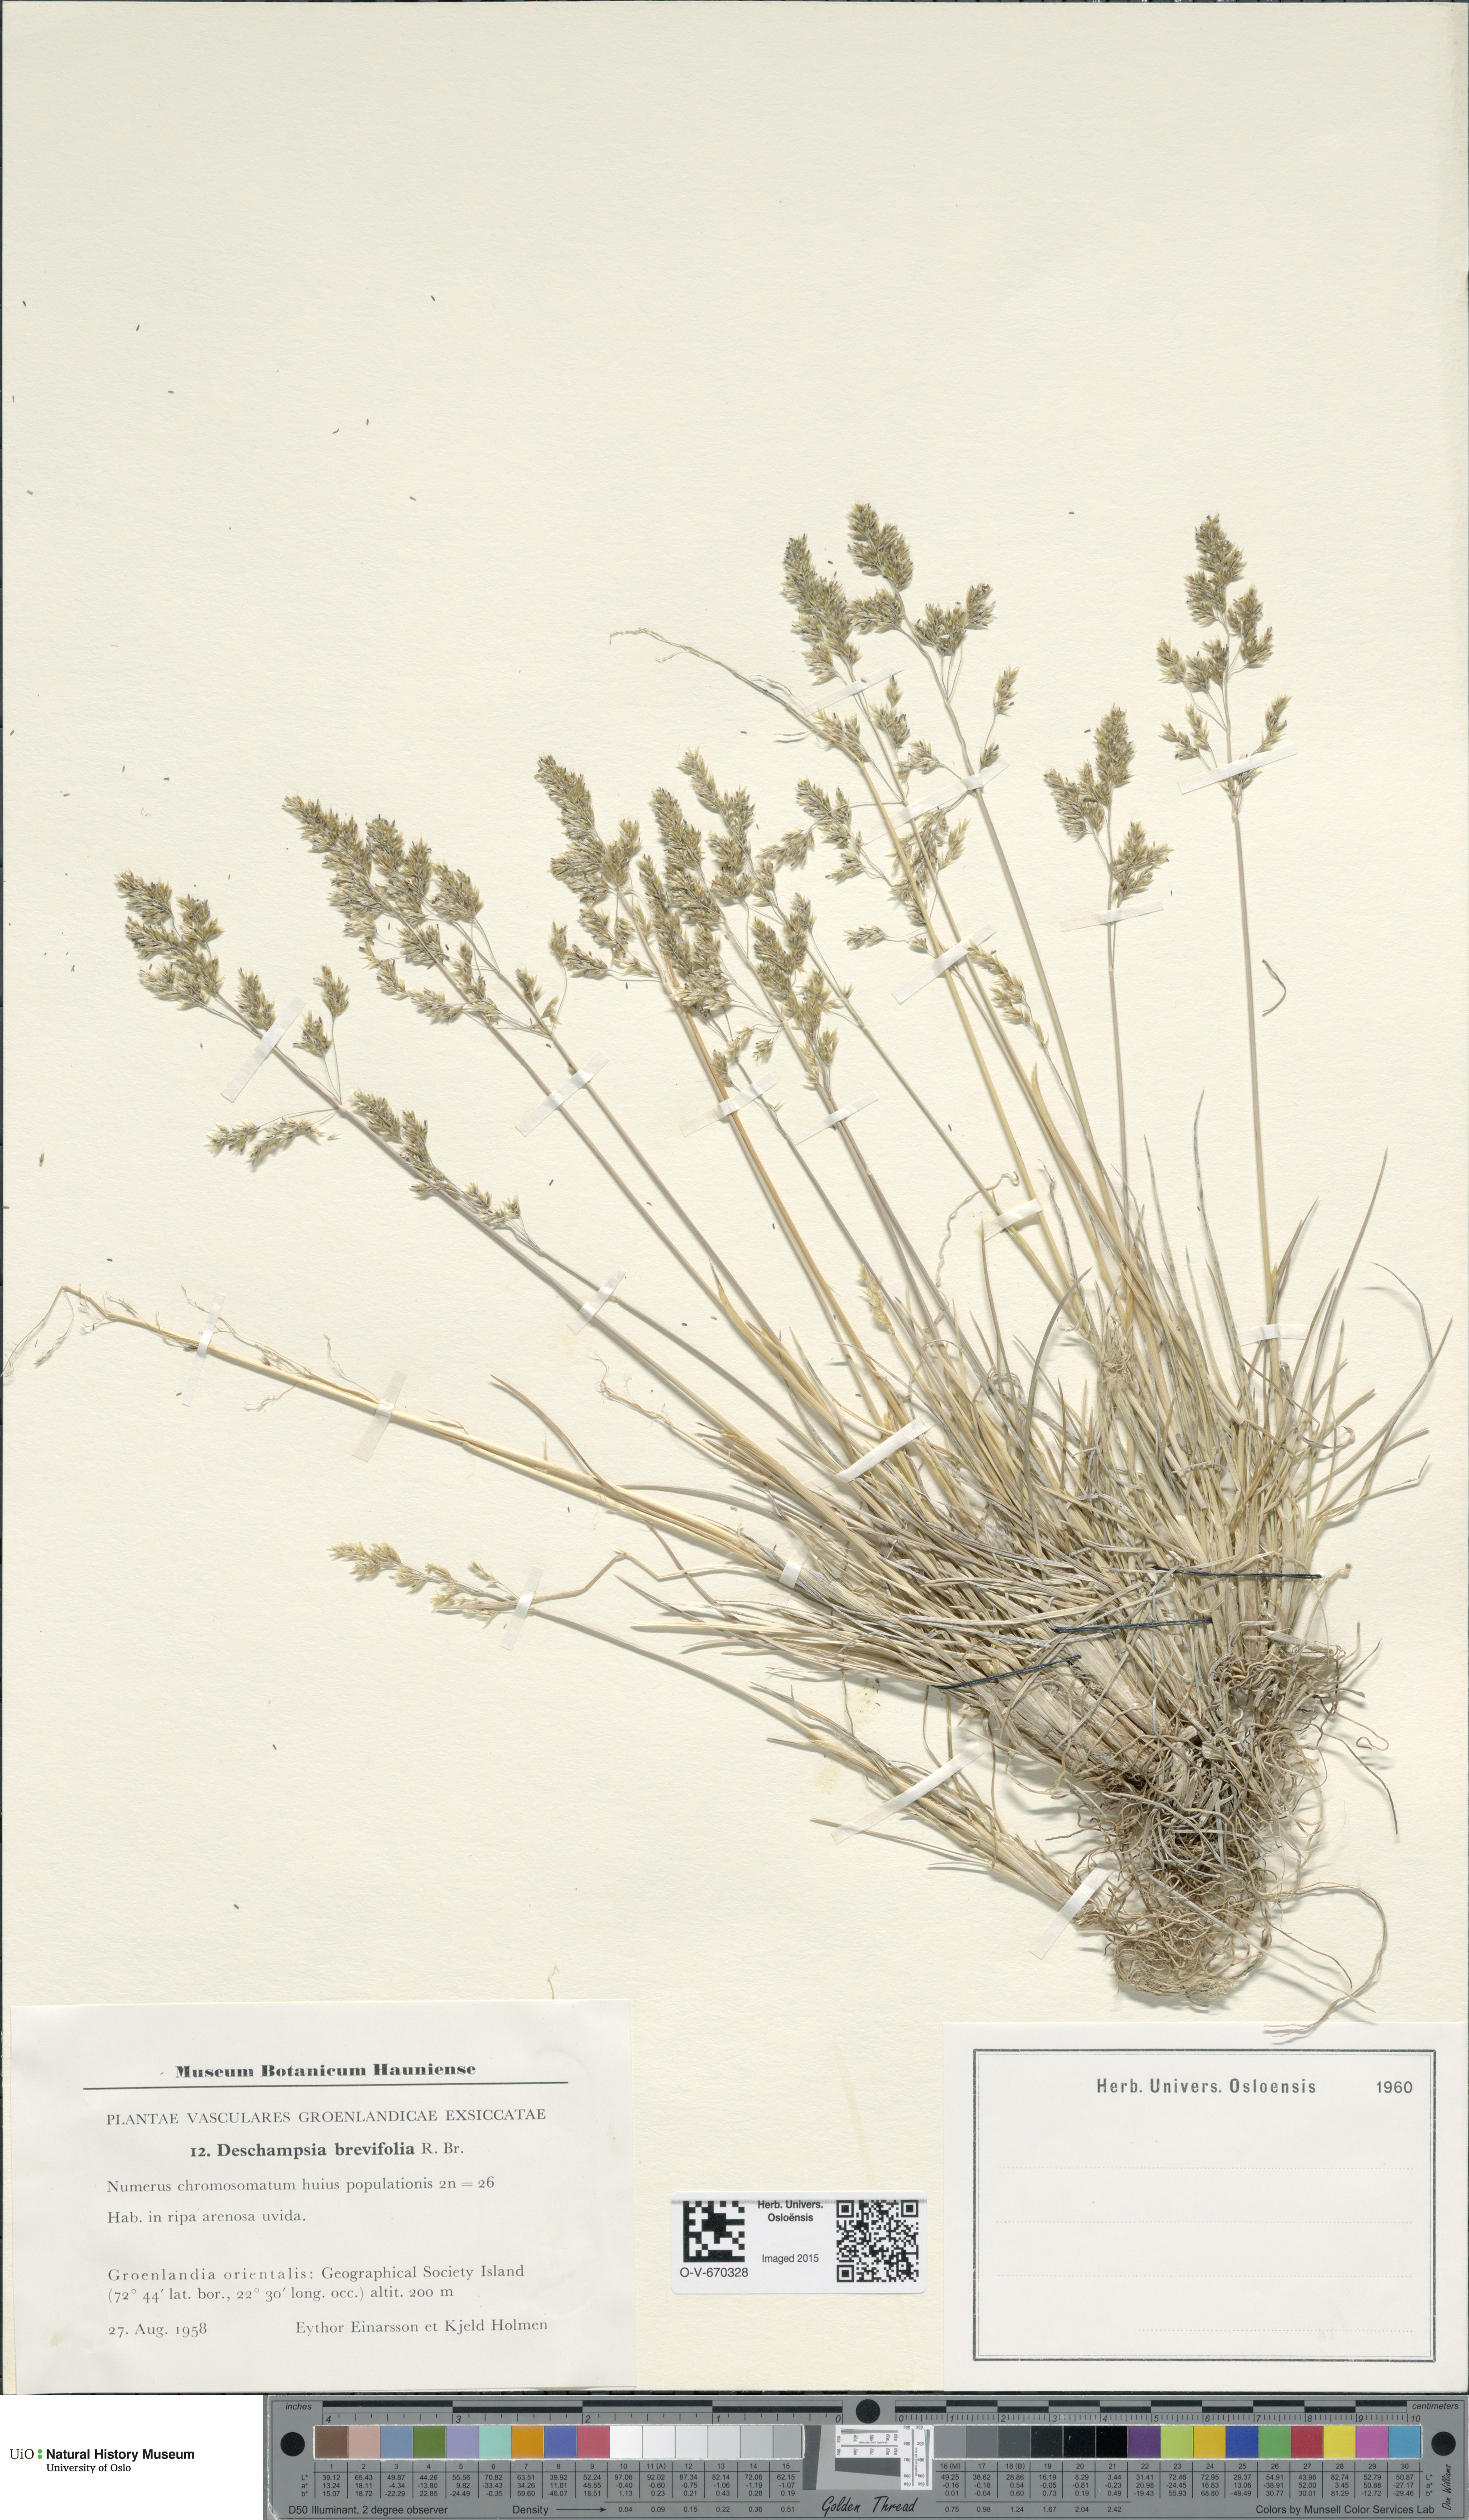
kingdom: Plantae
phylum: Tracheophyta
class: Liliopsida
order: Poales
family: Poaceae
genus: Deschampsia
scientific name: Deschampsia cespitosa
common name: Tufted hair-grass
